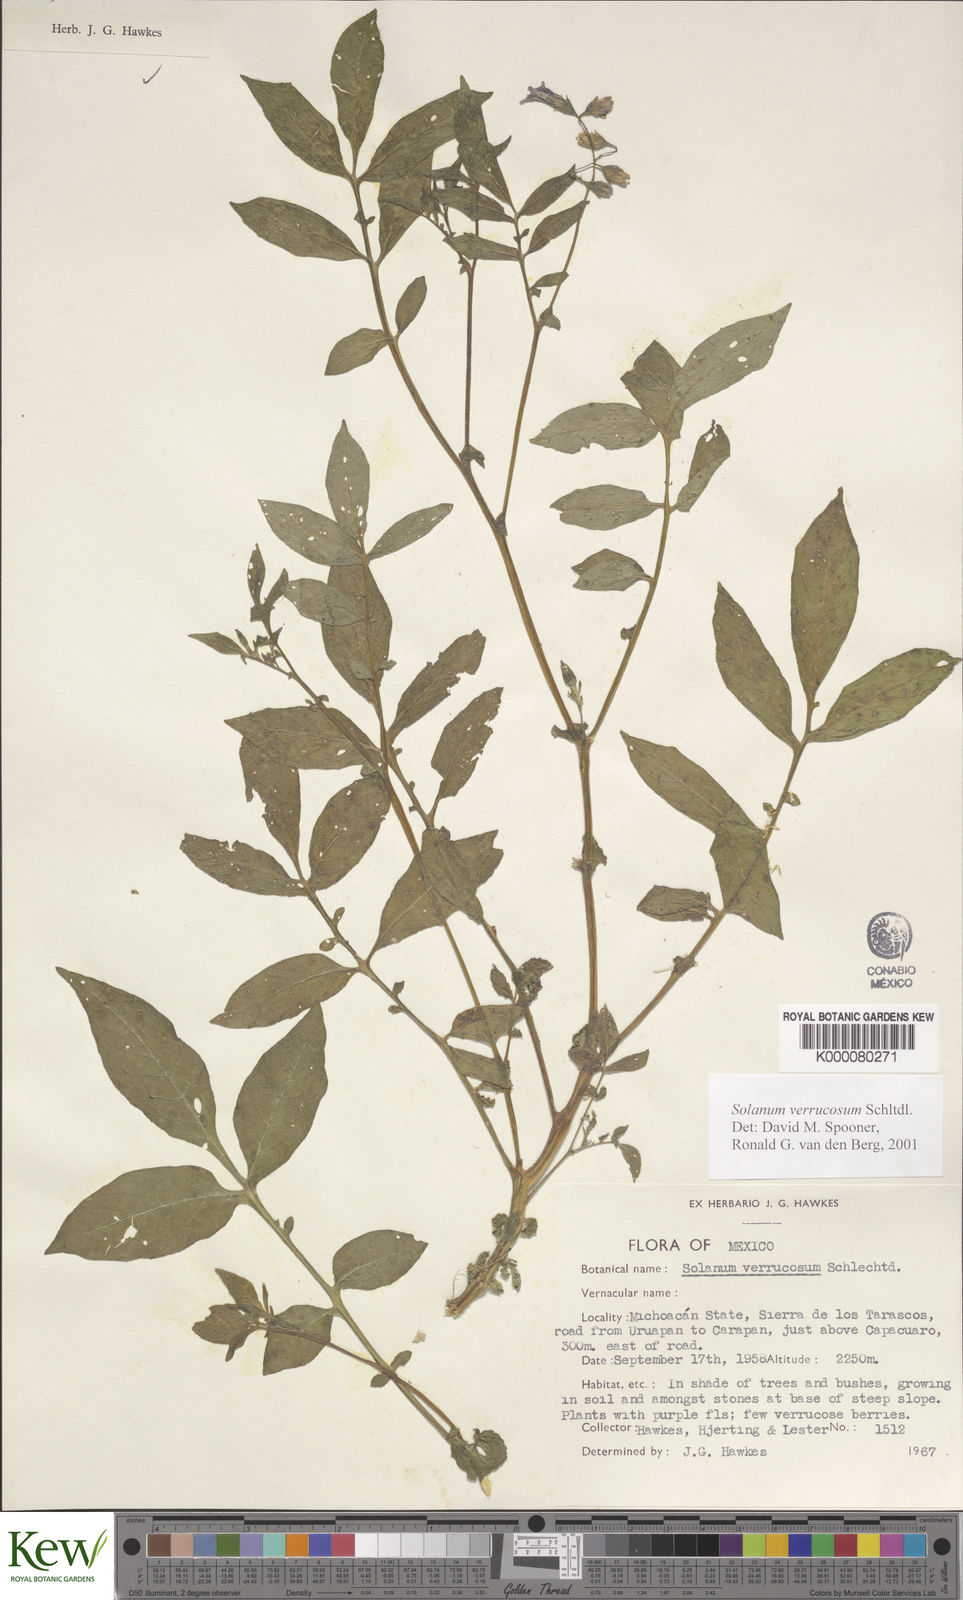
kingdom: Plantae
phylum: Tracheophyta
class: Magnoliopsida
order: Solanales
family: Solanaceae
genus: Solanum
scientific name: Solanum verrucosum
